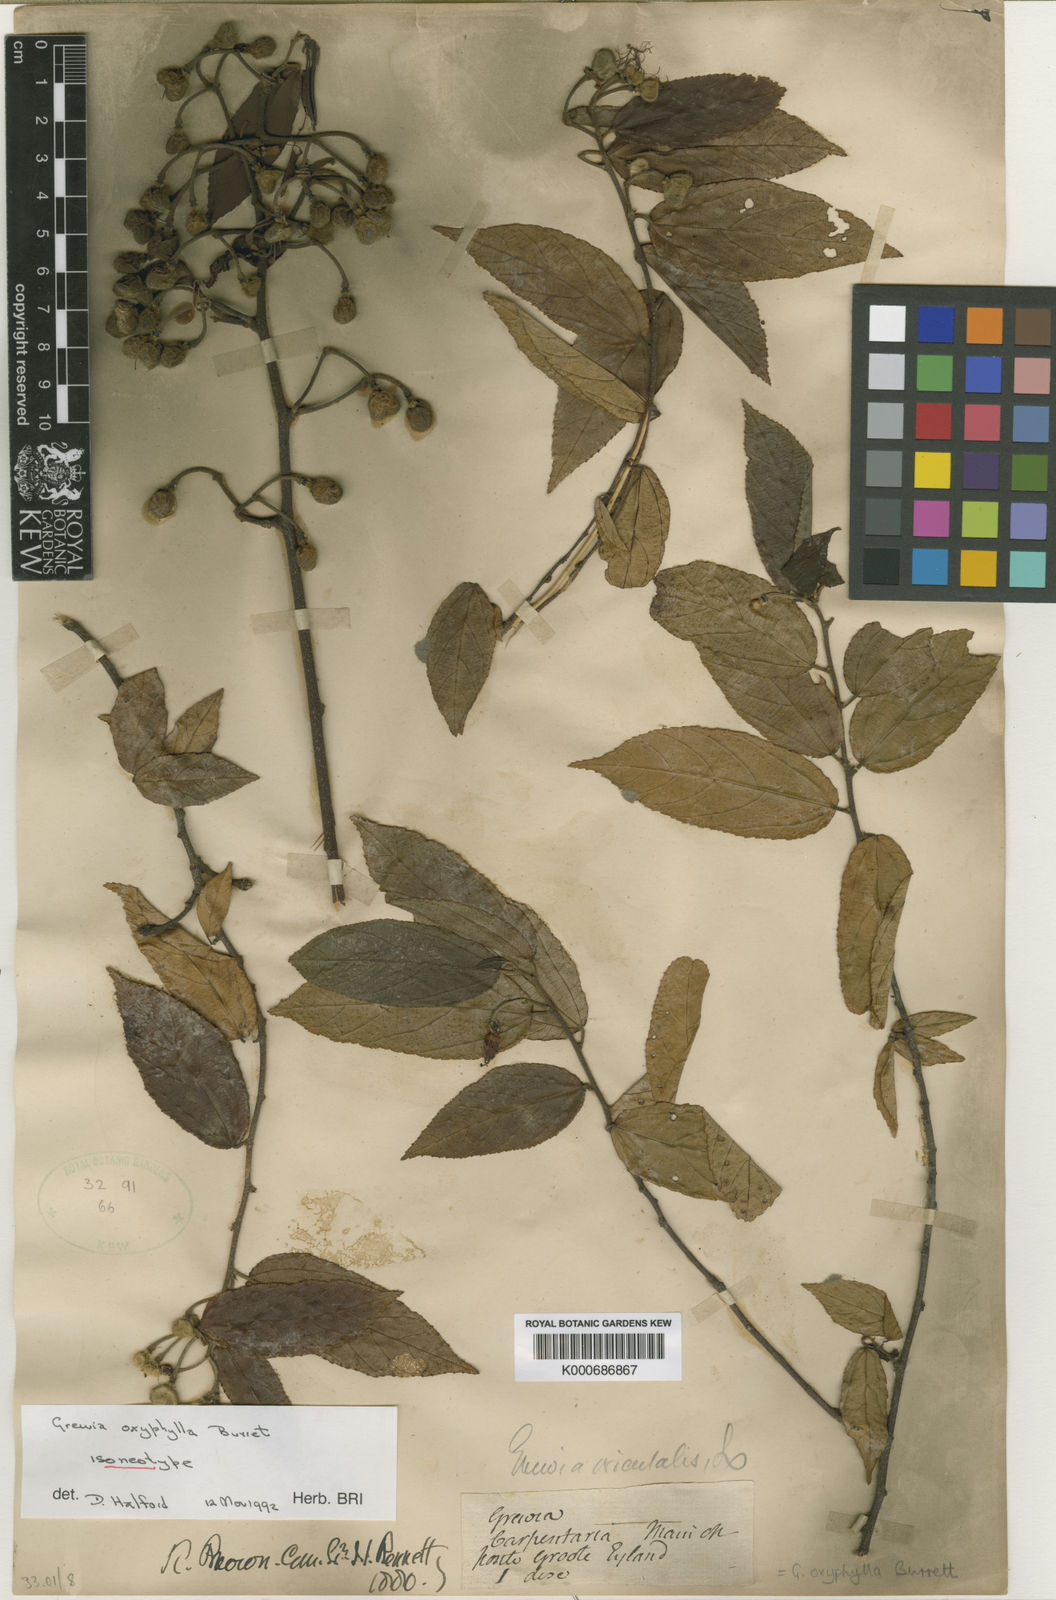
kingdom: Plantae
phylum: Tracheophyta
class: Magnoliopsida
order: Malvales
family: Malvaceae
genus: Grewia
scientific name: Grewia oxyphylla
